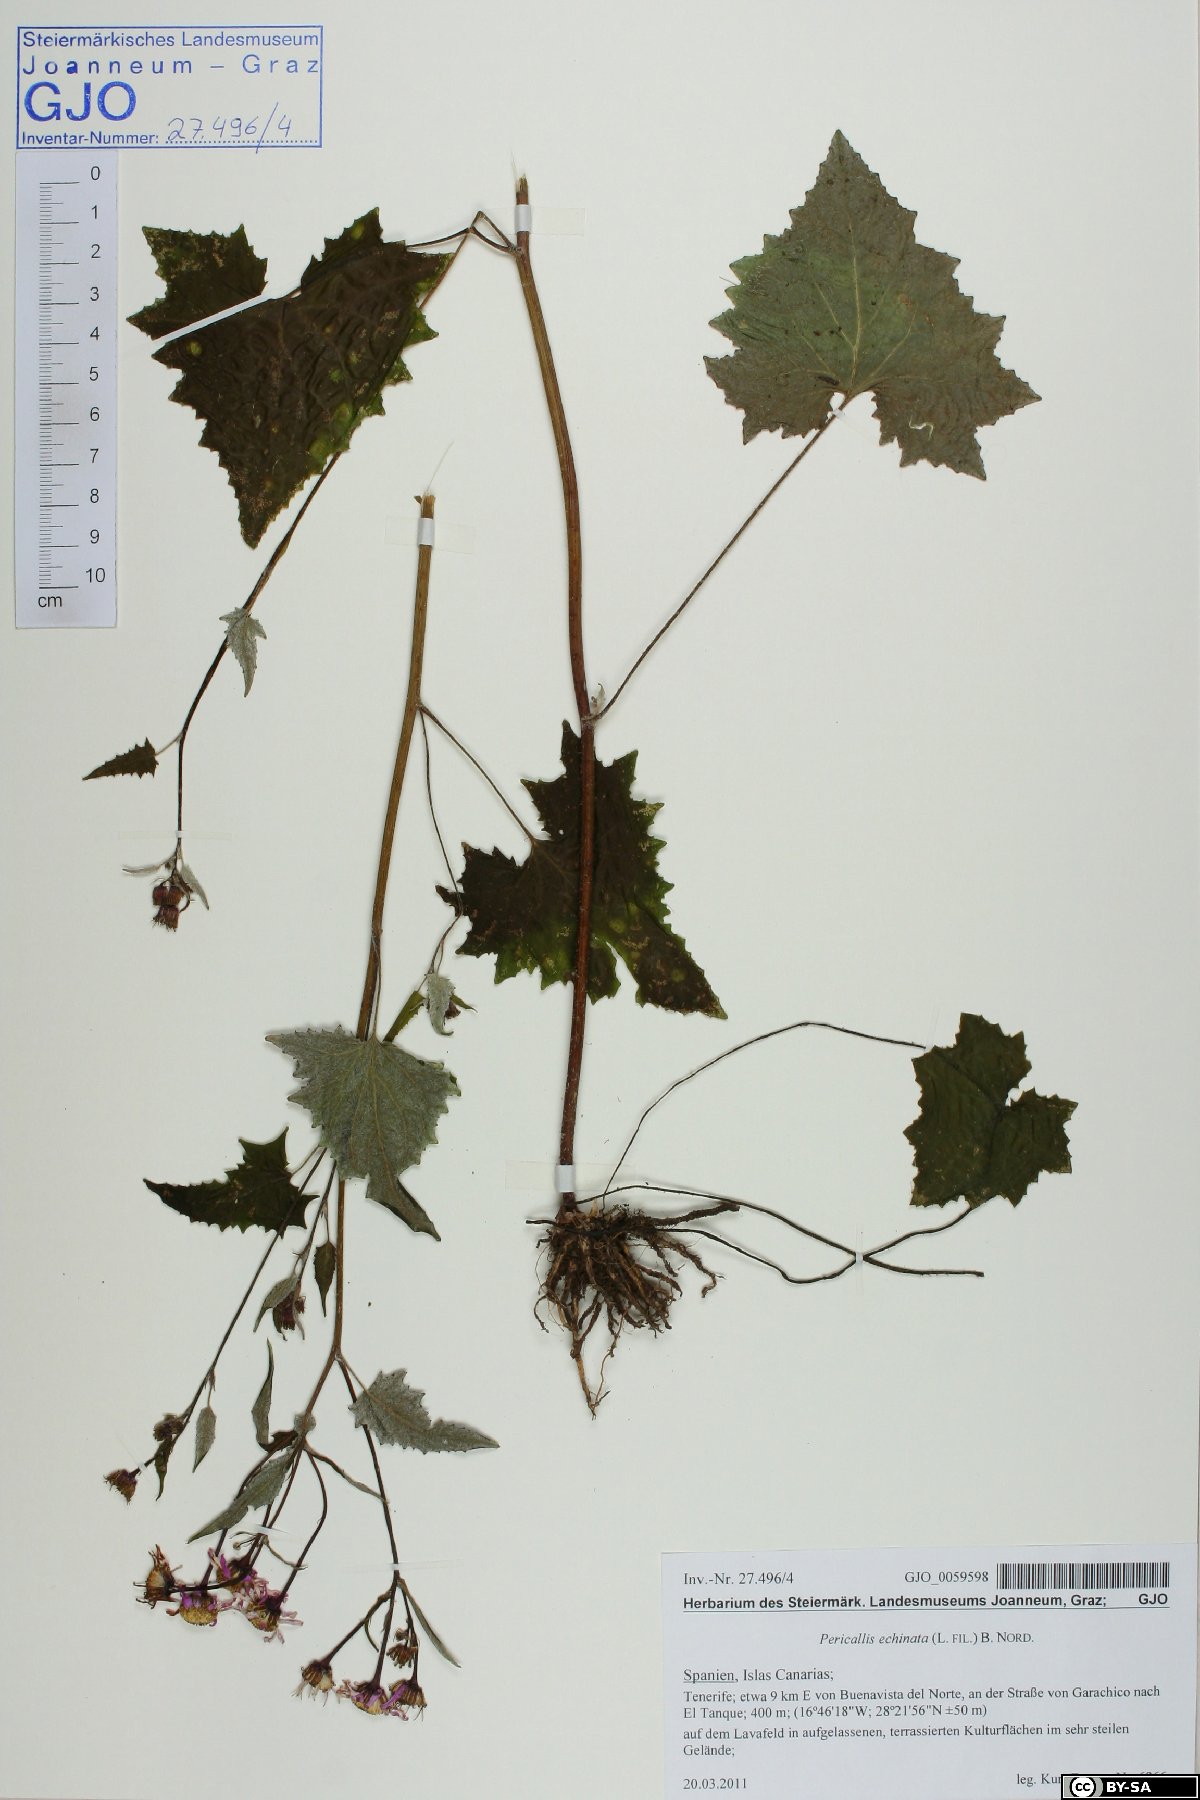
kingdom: Plantae
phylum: Tracheophyta
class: Magnoliopsida
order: Asterales
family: Asteraceae
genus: Pericallis
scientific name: Pericallis echinata
